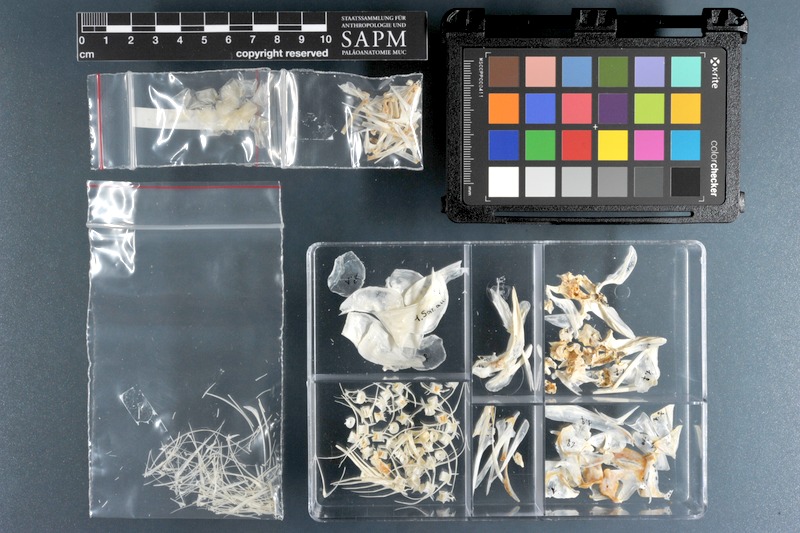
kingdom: Animalia
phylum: Chordata
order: Clupeiformes
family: Clupeidae
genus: Sardinella
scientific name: Sardinella aurita
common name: Round sardinella
